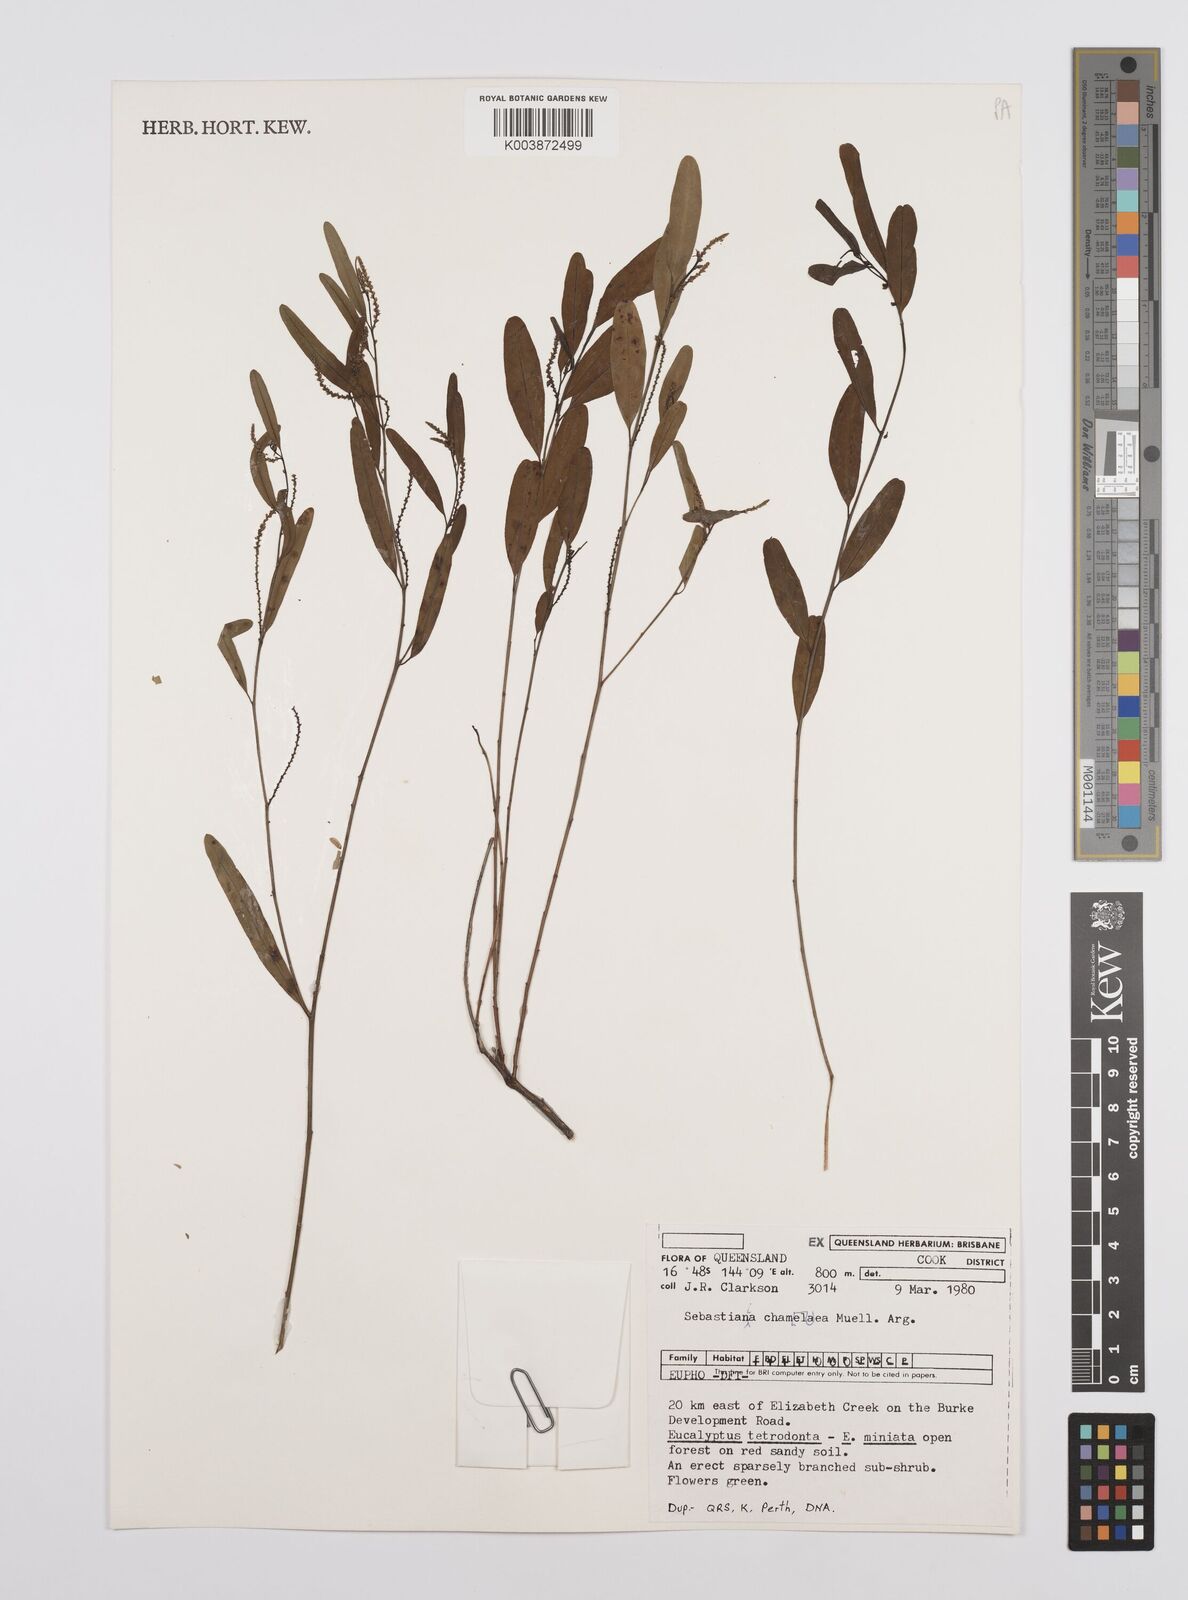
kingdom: Plantae
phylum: Tracheophyta
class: Magnoliopsida
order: Malpighiales
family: Euphorbiaceae
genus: Microstachys
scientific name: Microstachys chamaelea
